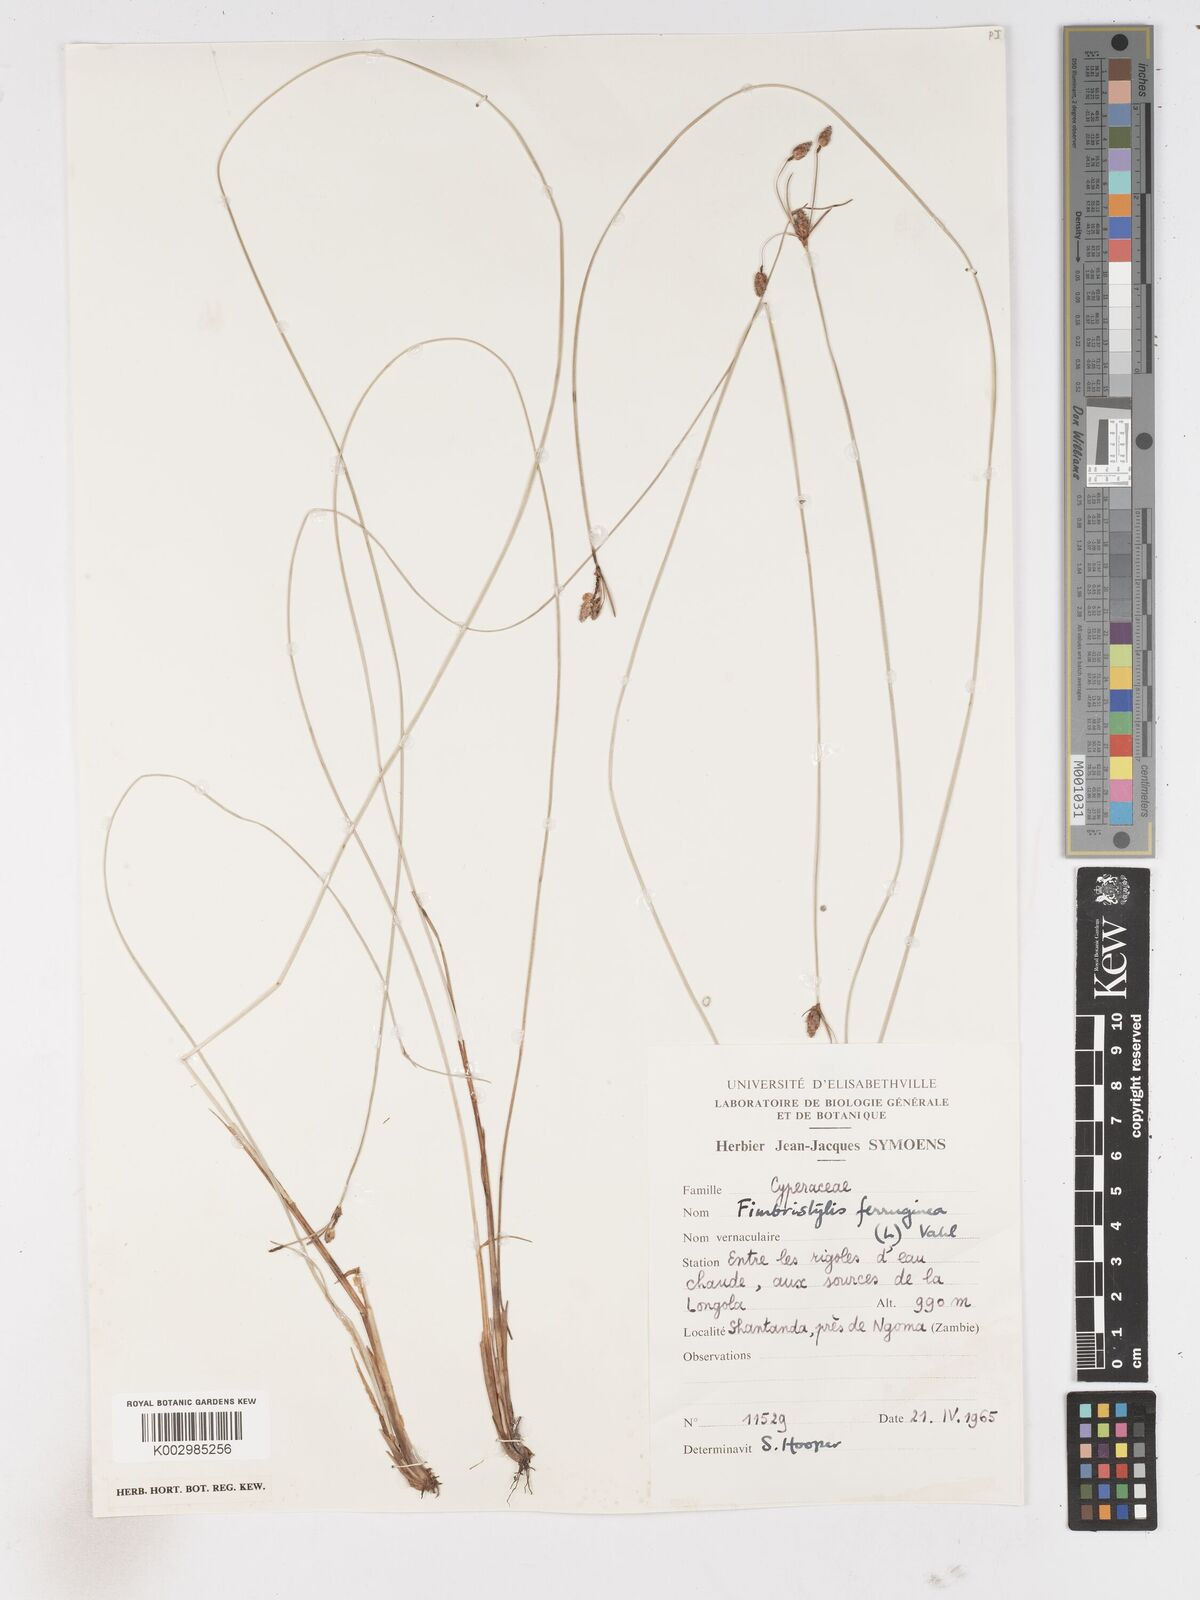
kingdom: Plantae
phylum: Tracheophyta
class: Liliopsida
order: Poales
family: Cyperaceae
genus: Fimbristylis
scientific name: Fimbristylis ferruginea
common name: West indian fimbry
